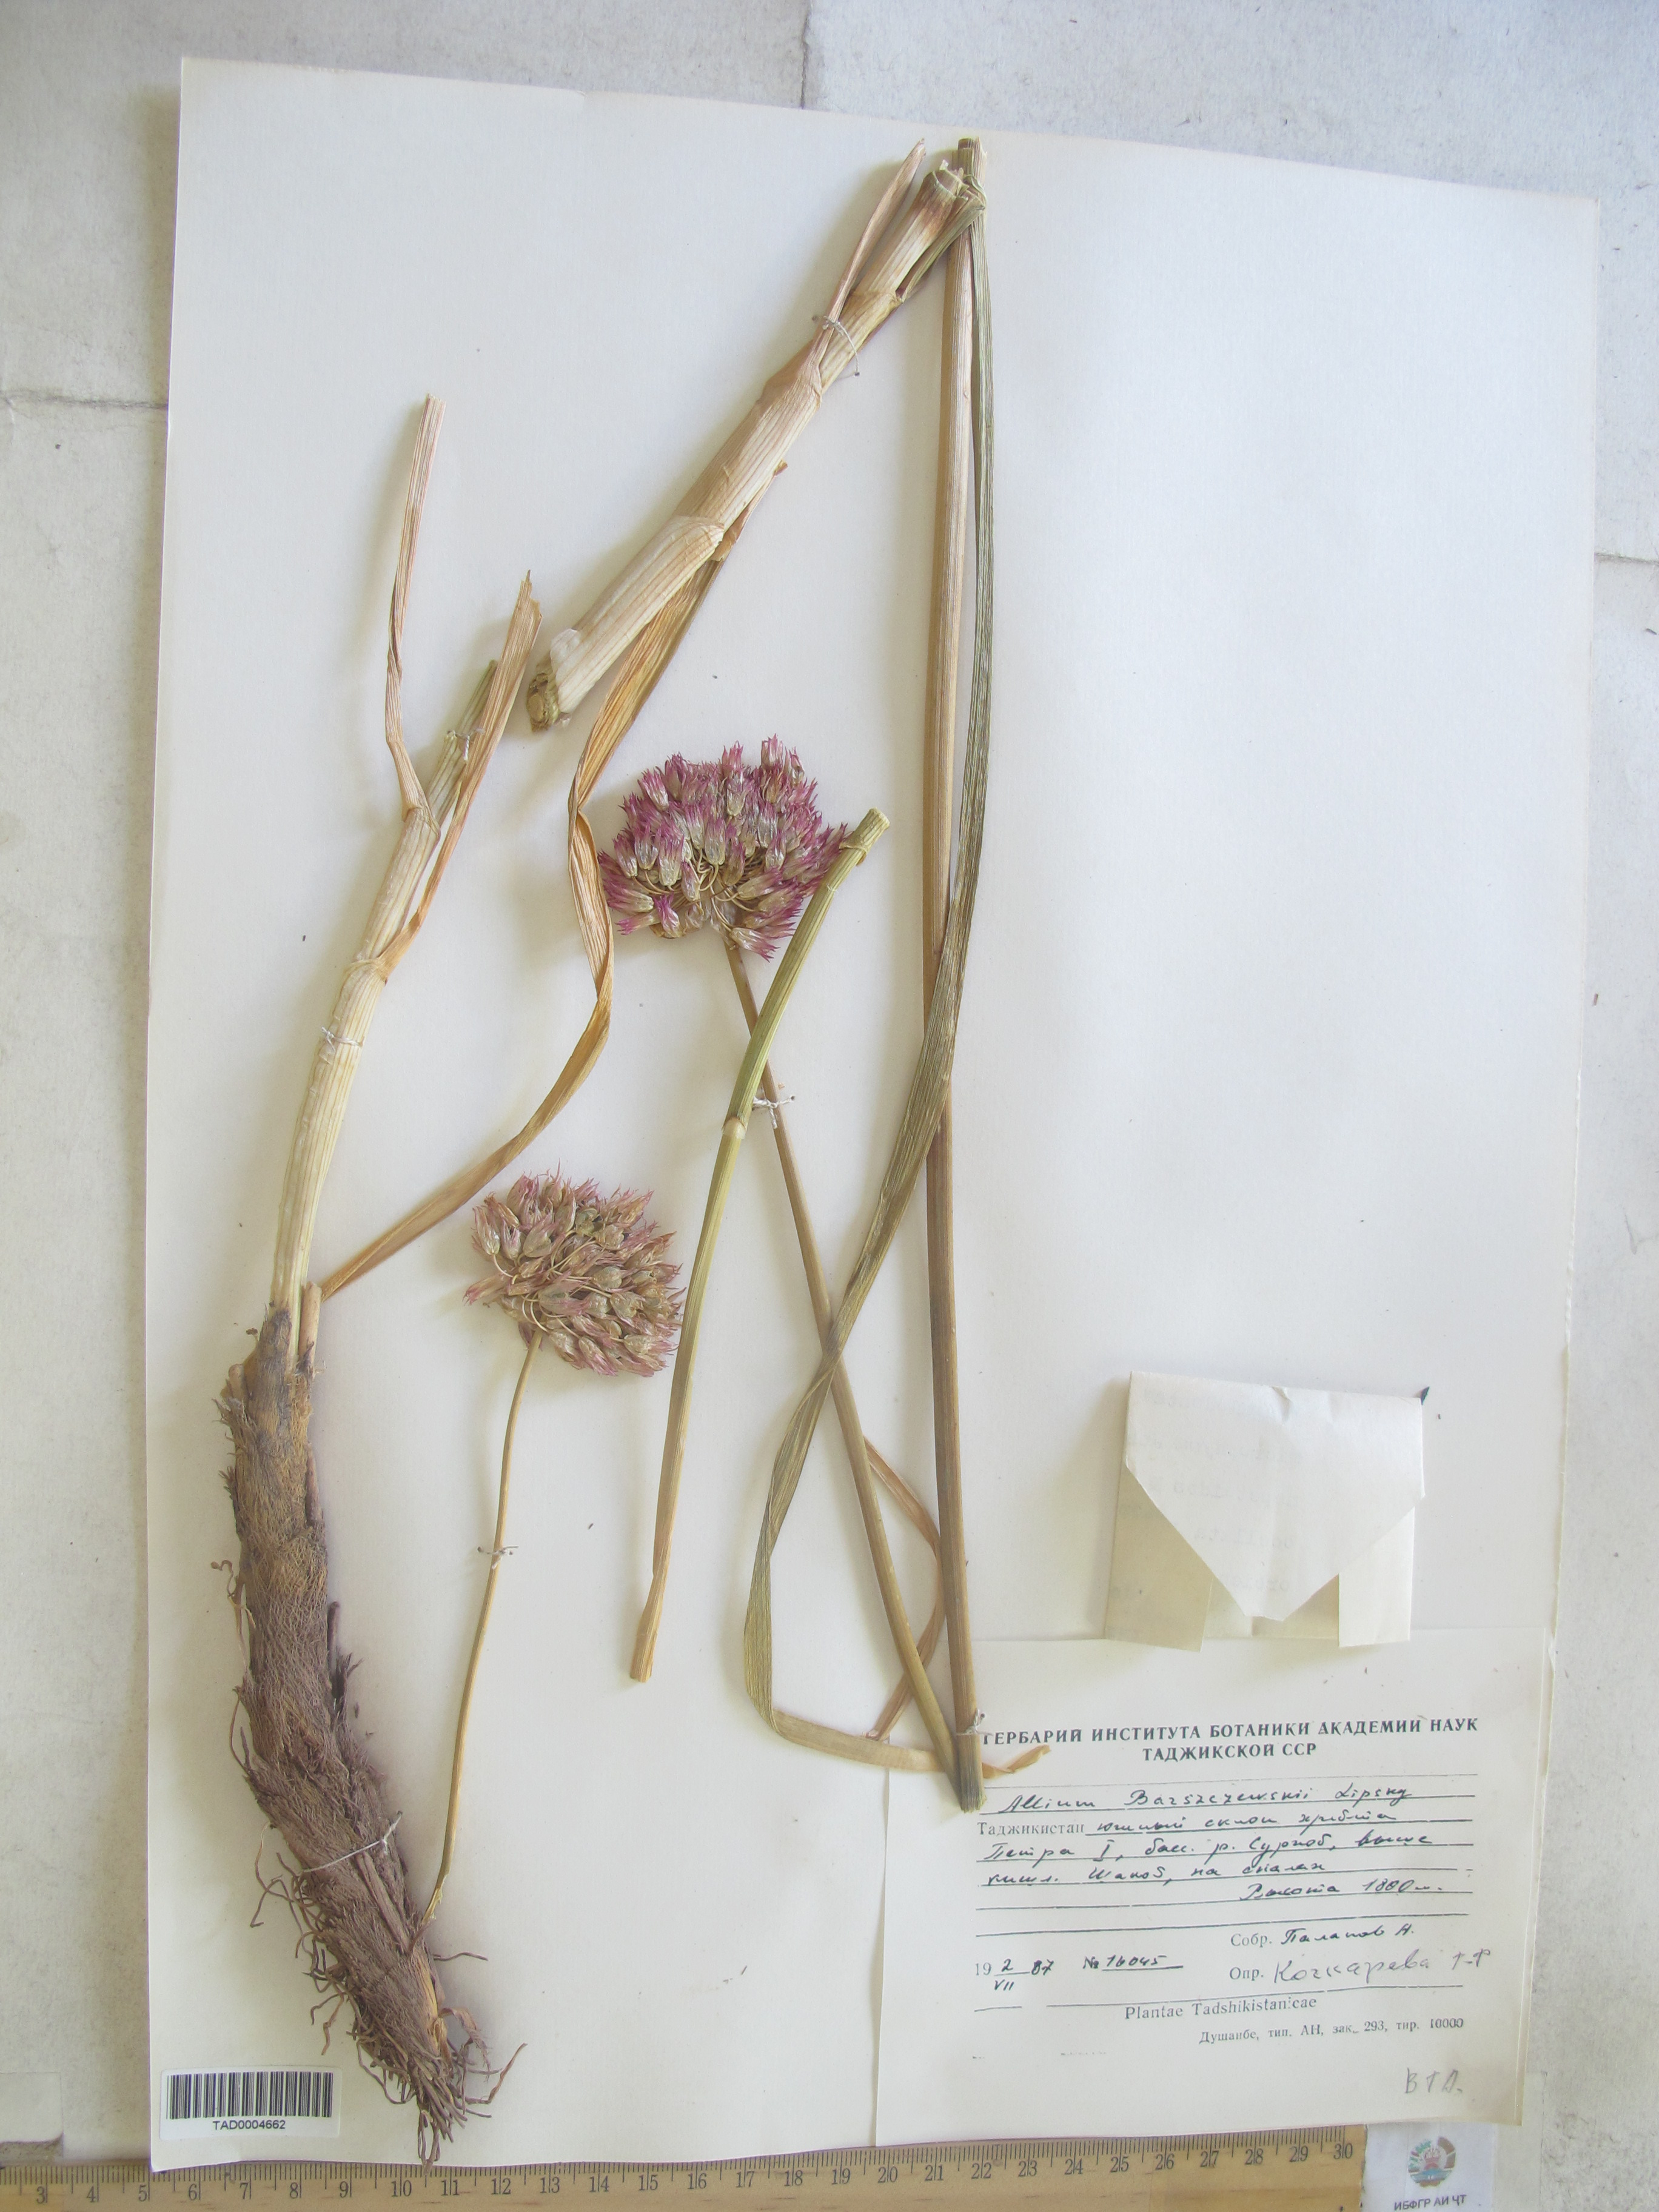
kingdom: Plantae
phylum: Tracheophyta
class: Liliopsida
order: Asparagales
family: Amaryllidaceae
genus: Allium
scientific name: Allium barsczewskii
